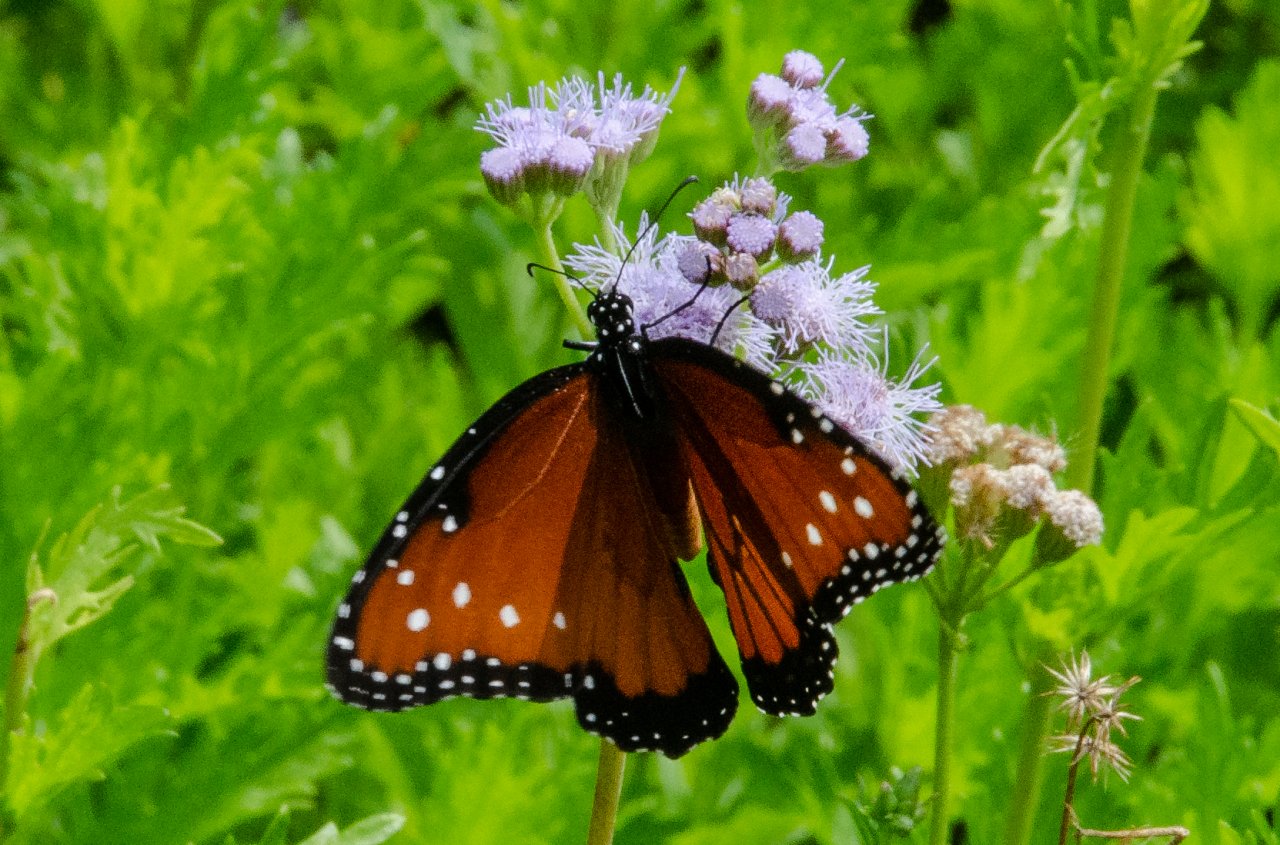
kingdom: Animalia
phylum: Arthropoda
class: Insecta
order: Lepidoptera
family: Nymphalidae
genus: Danaus
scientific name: Danaus gilippus
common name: Queen
